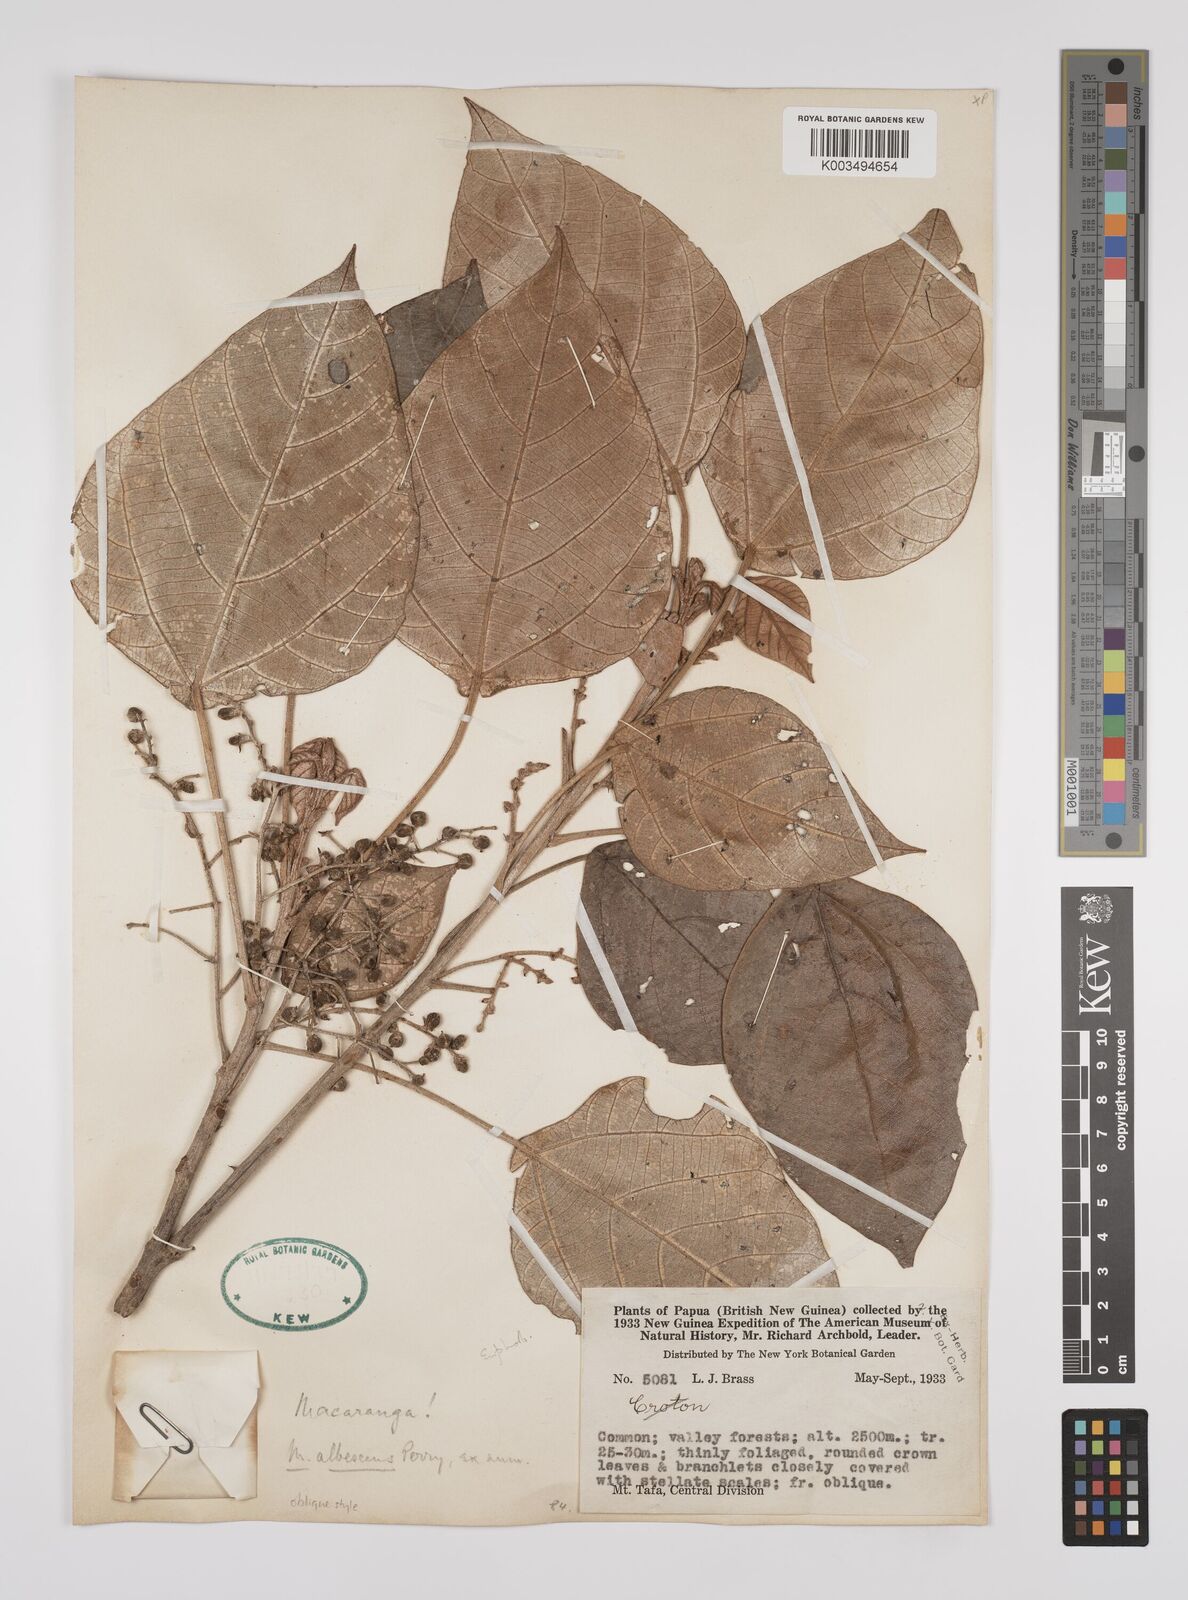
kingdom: Plantae
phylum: Tracheophyta
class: Magnoliopsida
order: Malpighiales
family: Euphorbiaceae
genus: Macaranga
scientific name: Macaranga albescens
